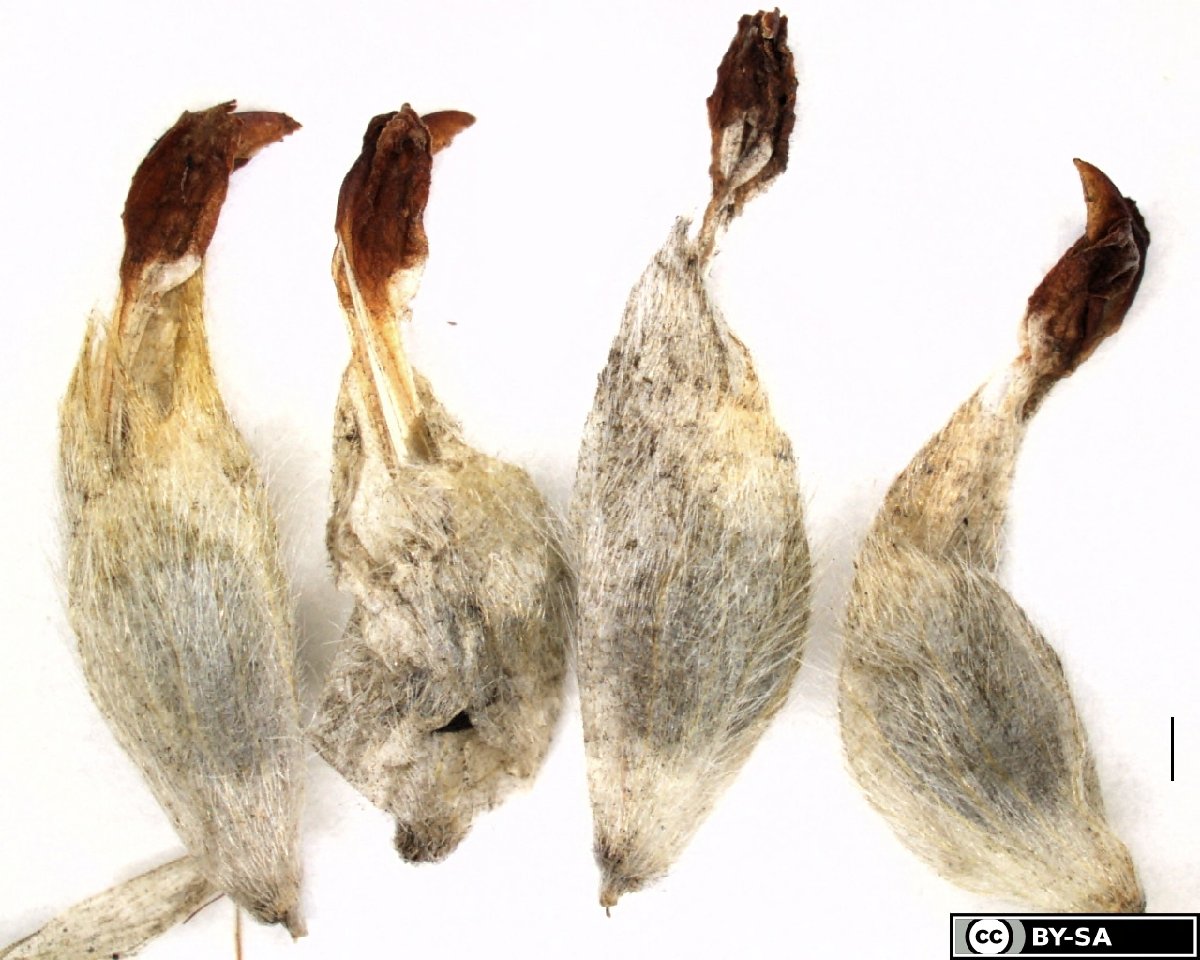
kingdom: Plantae
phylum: Tracheophyta
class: Magnoliopsida
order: Fabales
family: Fabaceae
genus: Anthyllis
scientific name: Anthyllis vulneraria
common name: Kidney vetch
